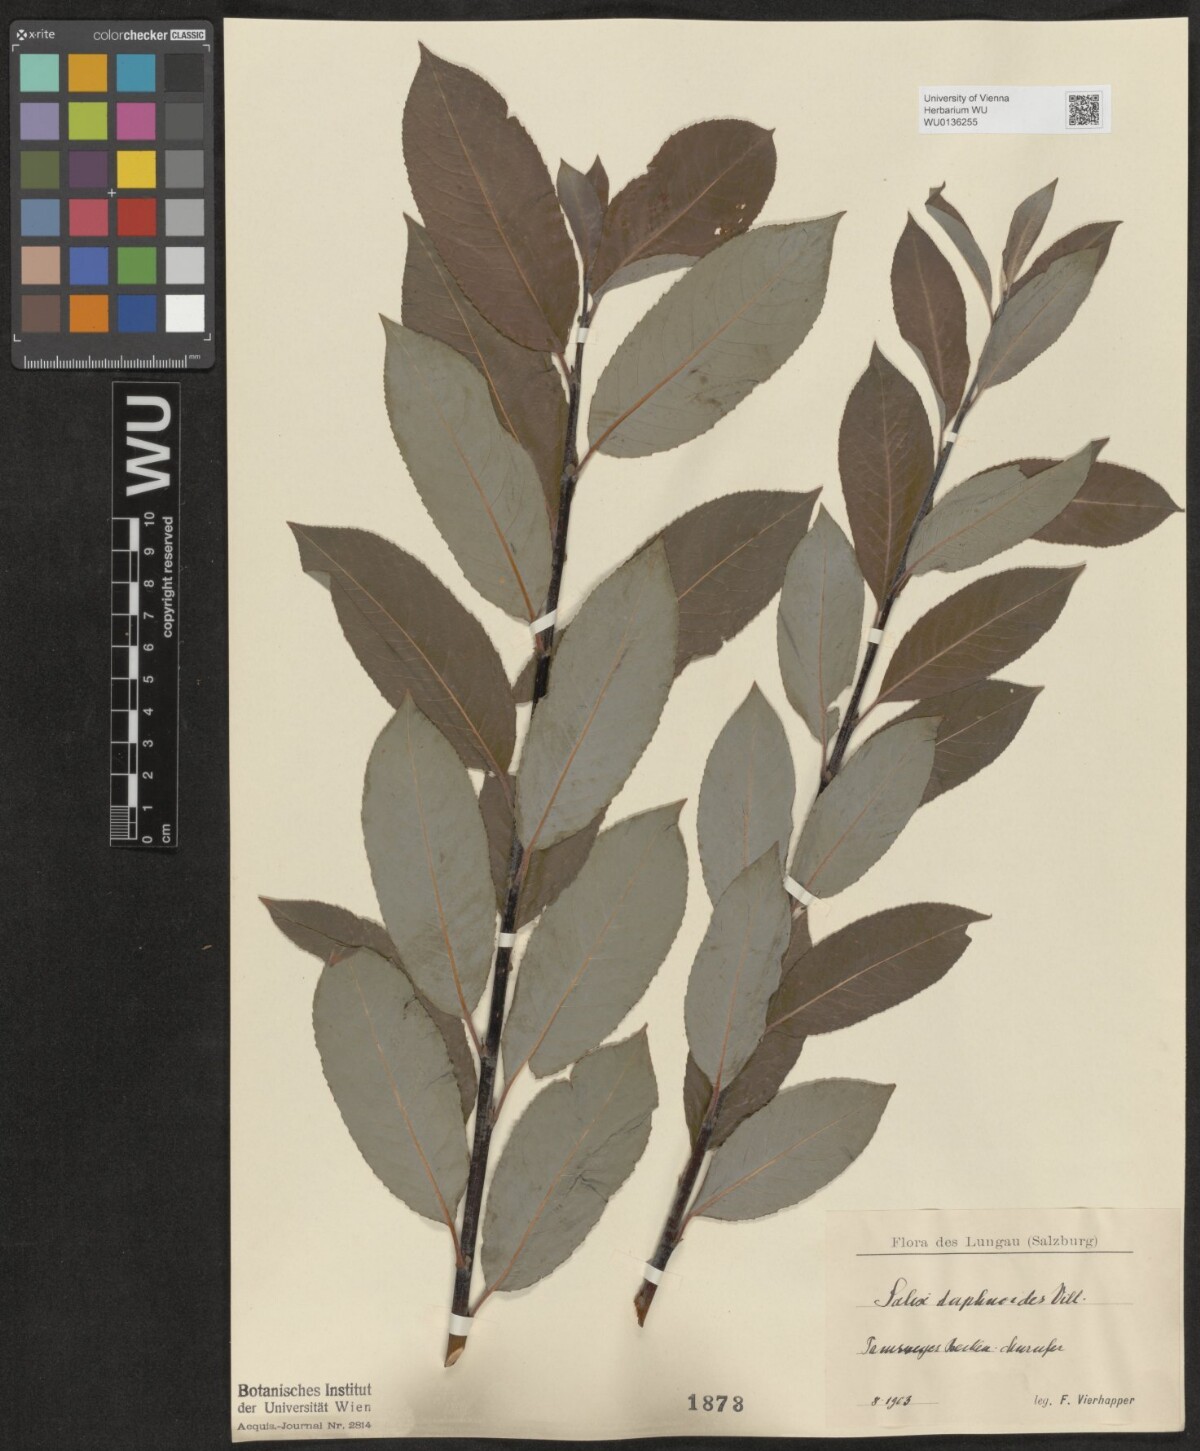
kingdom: Plantae
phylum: Tracheophyta
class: Magnoliopsida
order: Malpighiales
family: Salicaceae
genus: Salix
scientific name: Salix daphnoides
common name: European violet-willow
